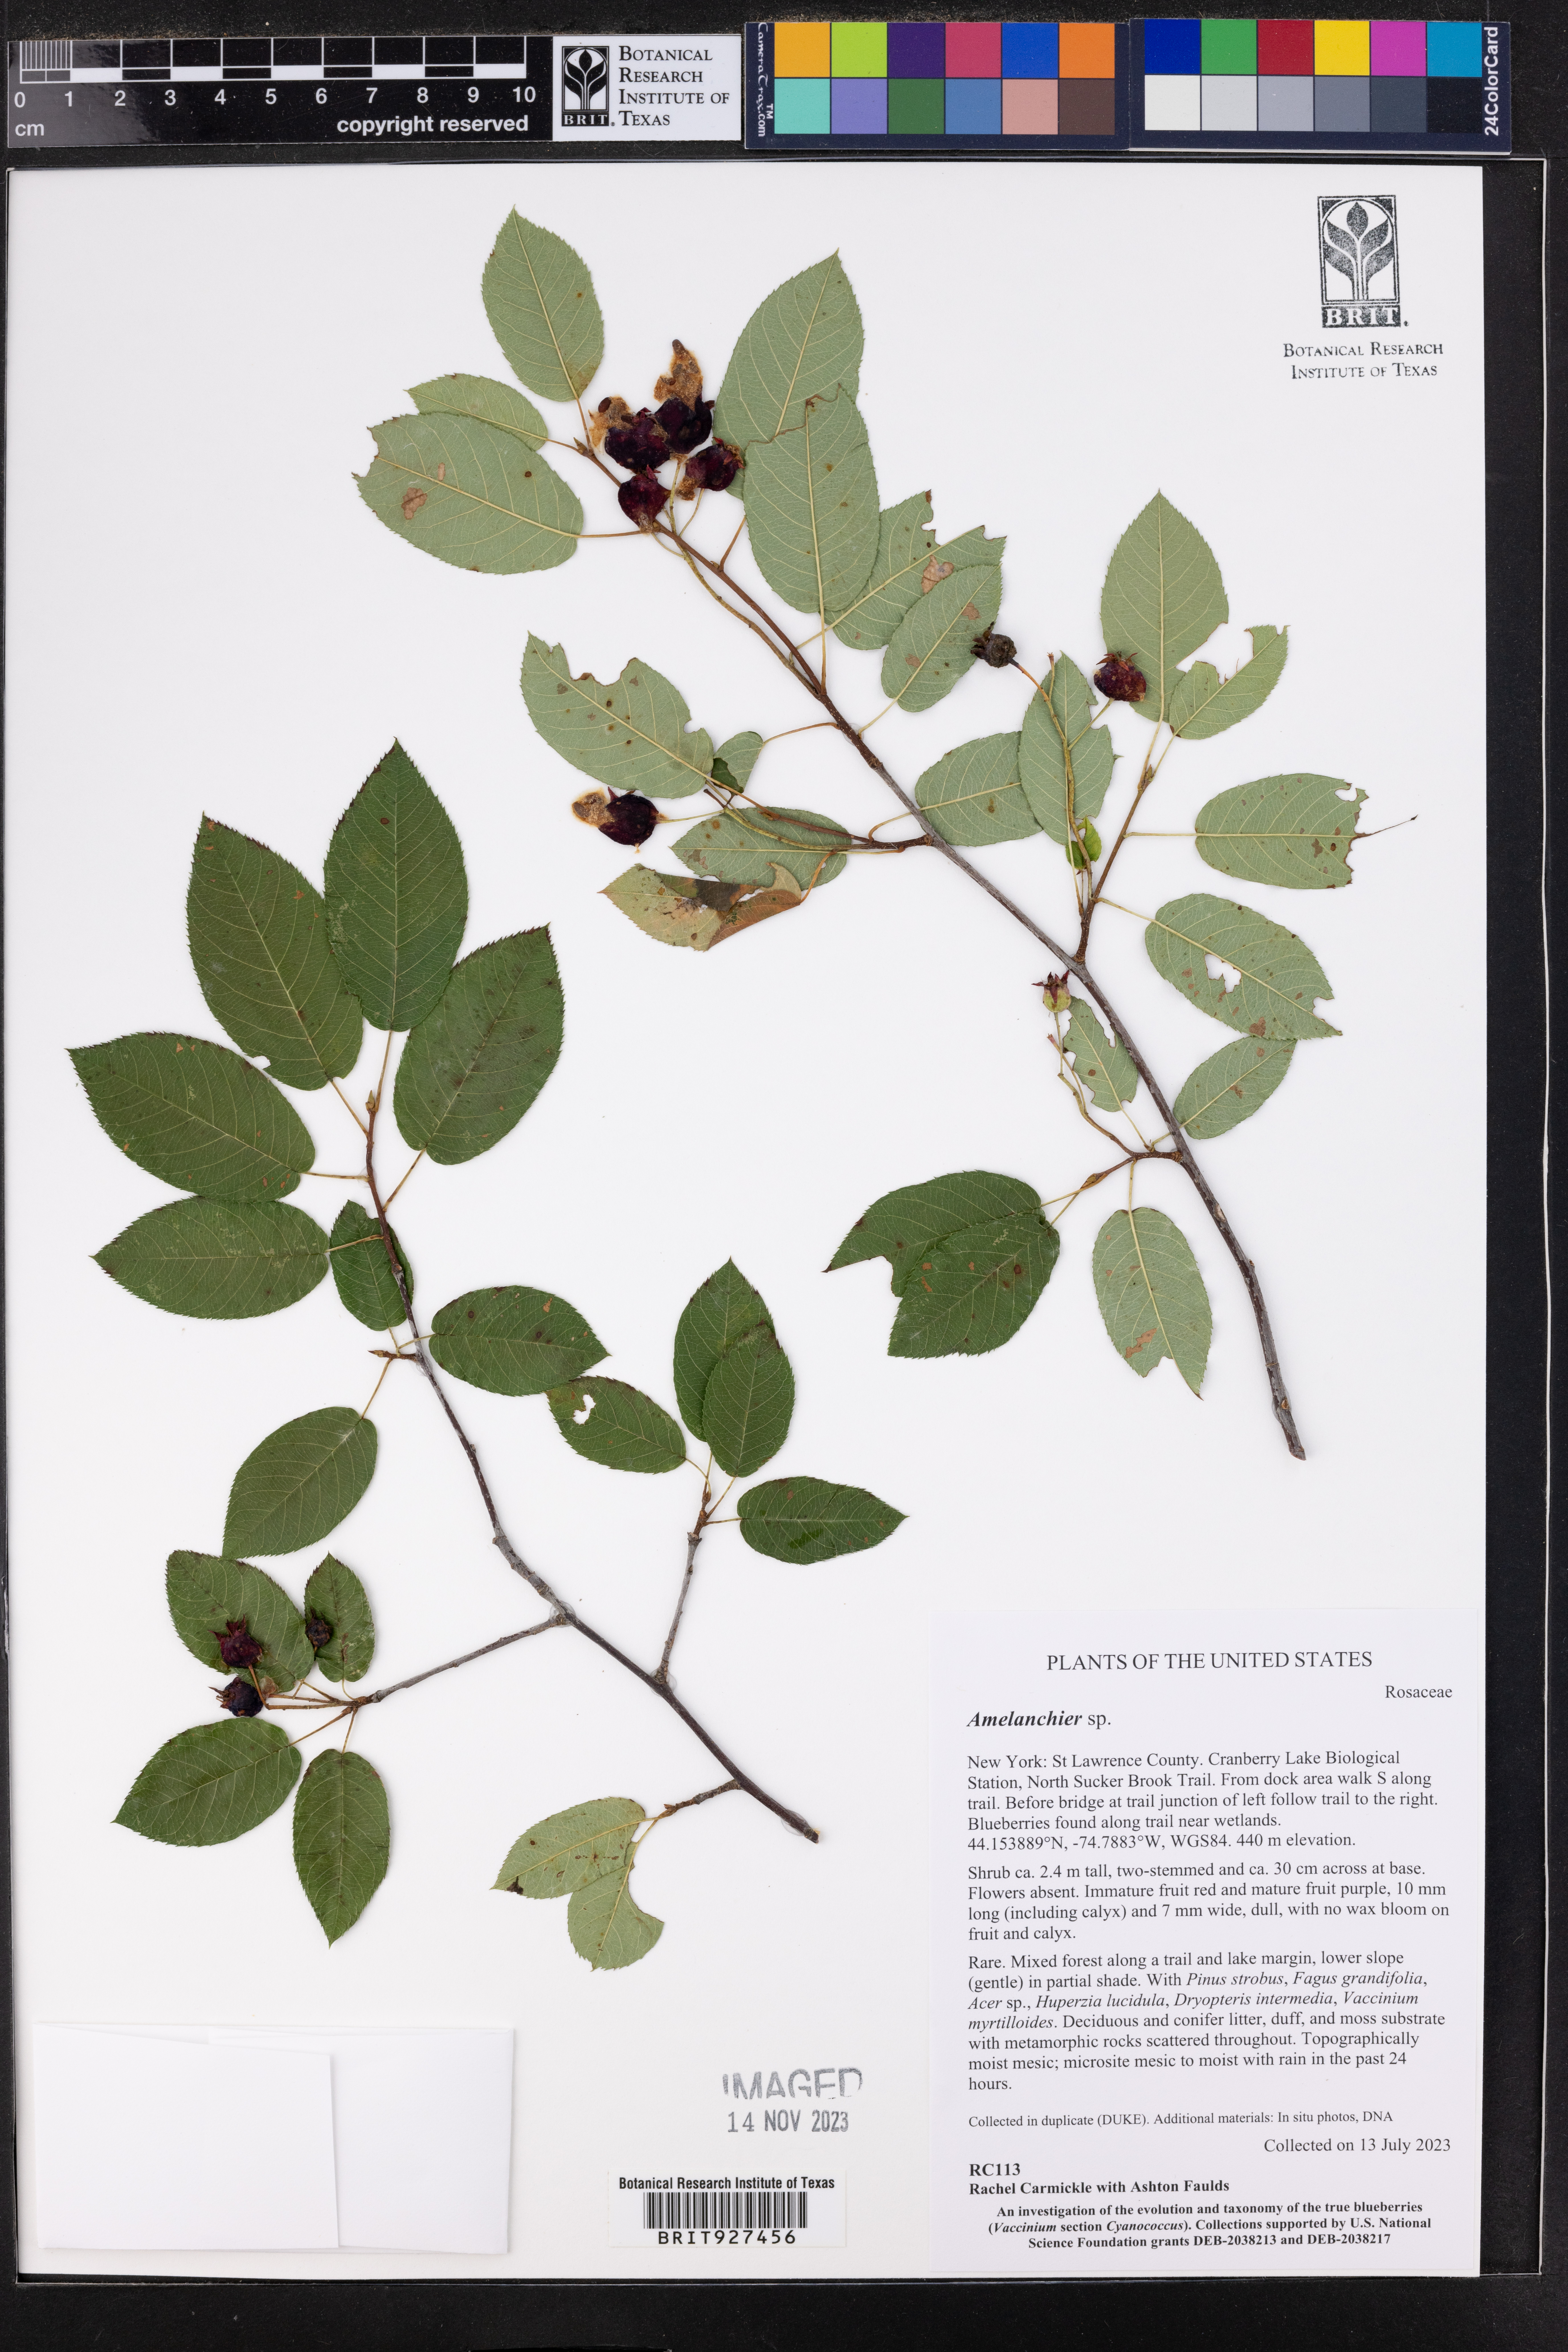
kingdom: Plantae
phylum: Tracheophyta
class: Magnoliopsida
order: Rosales
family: Rosaceae
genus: Amelanchier
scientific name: Amelanchier
